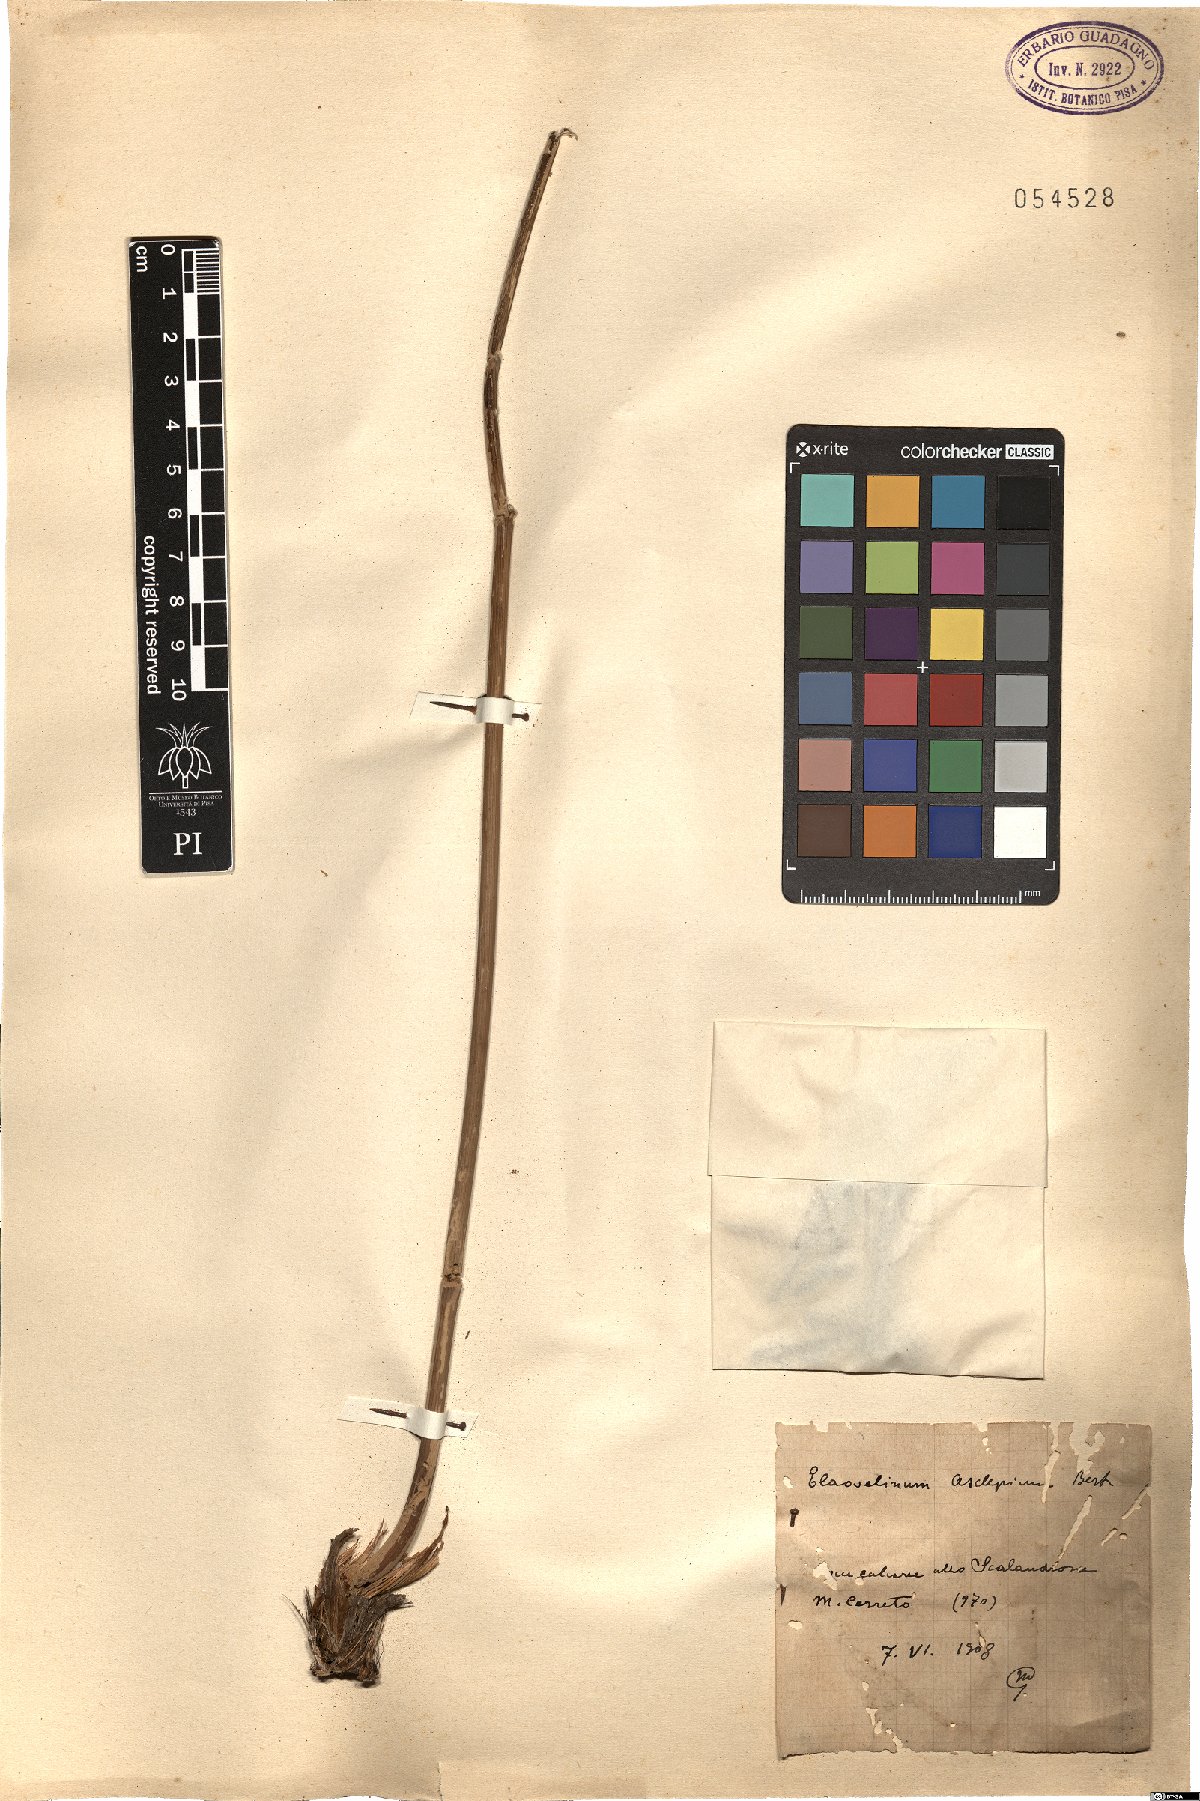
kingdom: Plantae
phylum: Tracheophyta
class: Magnoliopsida
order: Apiales
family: Apiaceae
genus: Thapsia
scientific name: Thapsia asclepium
